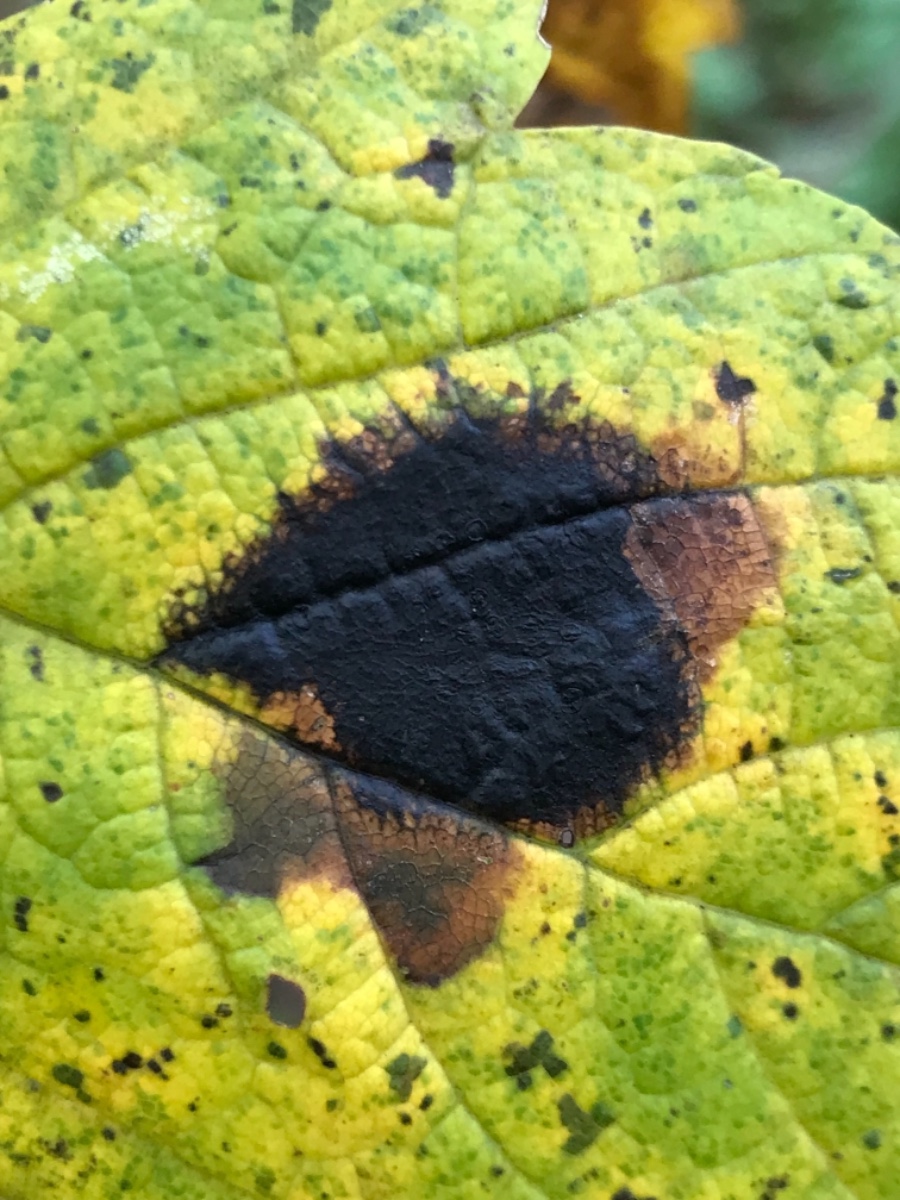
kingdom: Fungi
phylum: Ascomycota
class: Leotiomycetes
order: Rhytismatales
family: Rhytismataceae
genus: Rhytisma
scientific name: Rhytisma acerinum
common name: ahorn-rynkeplet
